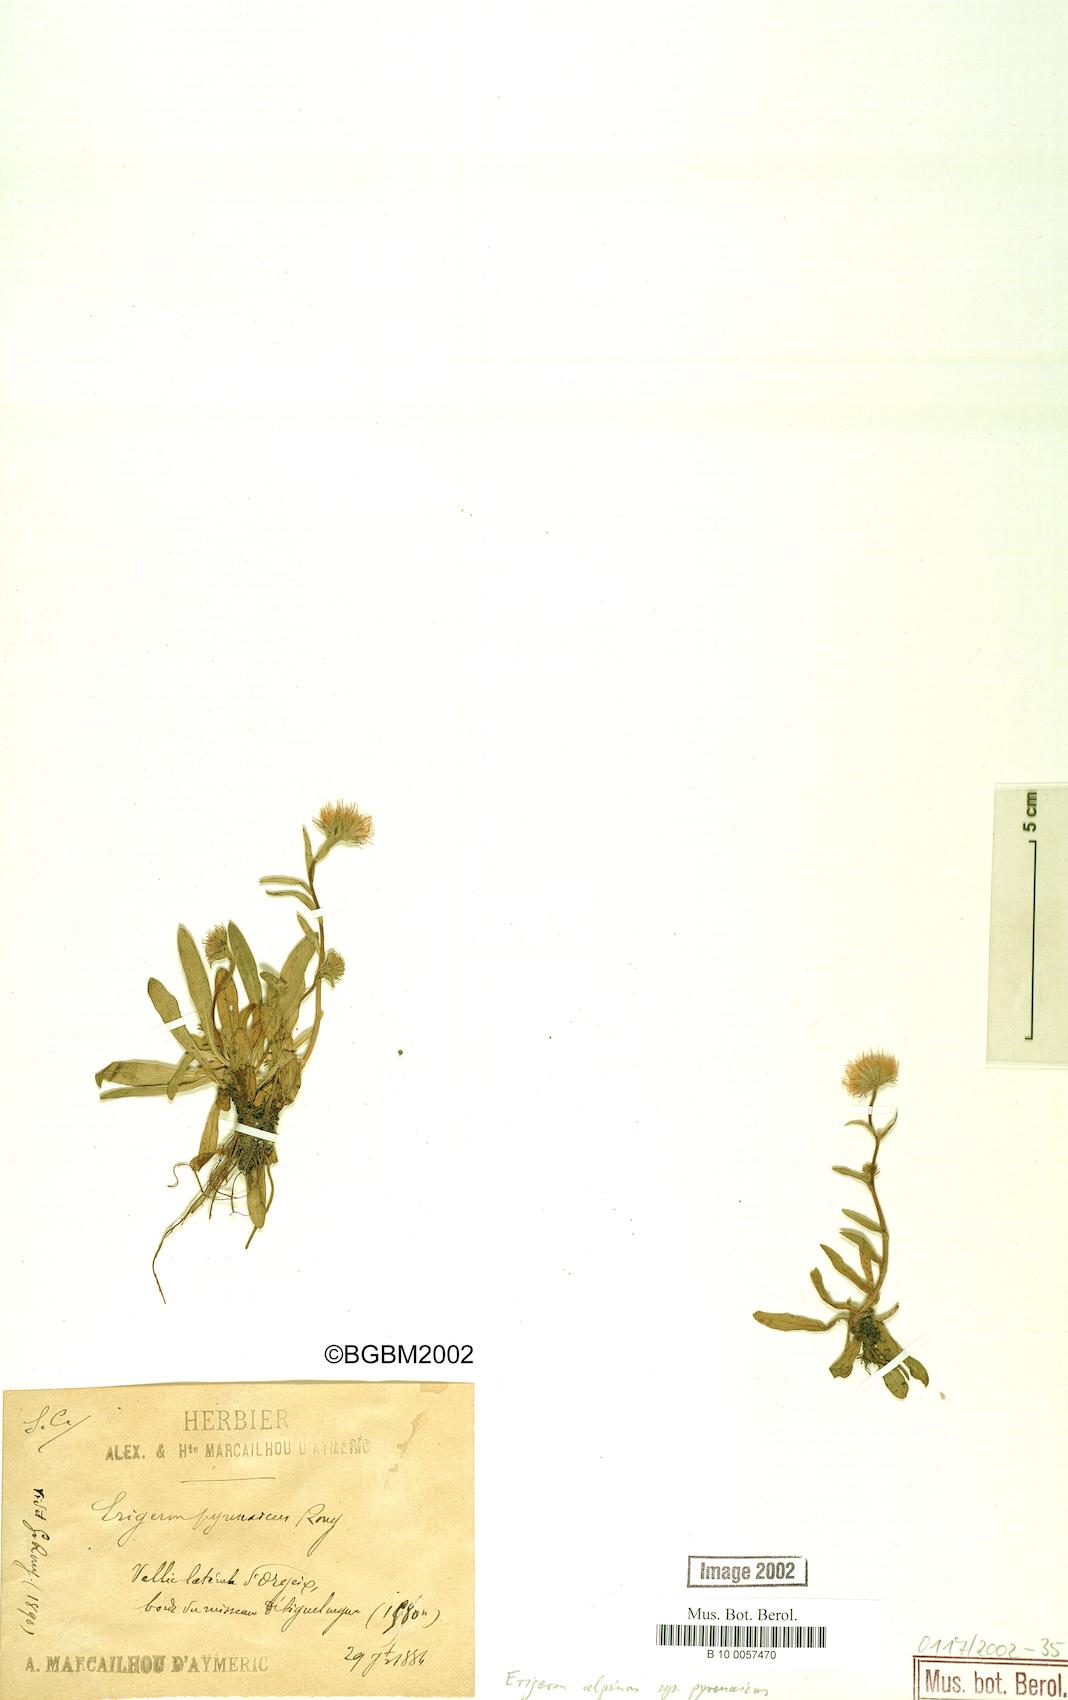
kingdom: Plantae
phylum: Tracheophyta
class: Magnoliopsida
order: Asterales
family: Asteraceae
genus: Erigeron
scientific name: Erigeron uniflorus
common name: Northern daisy
